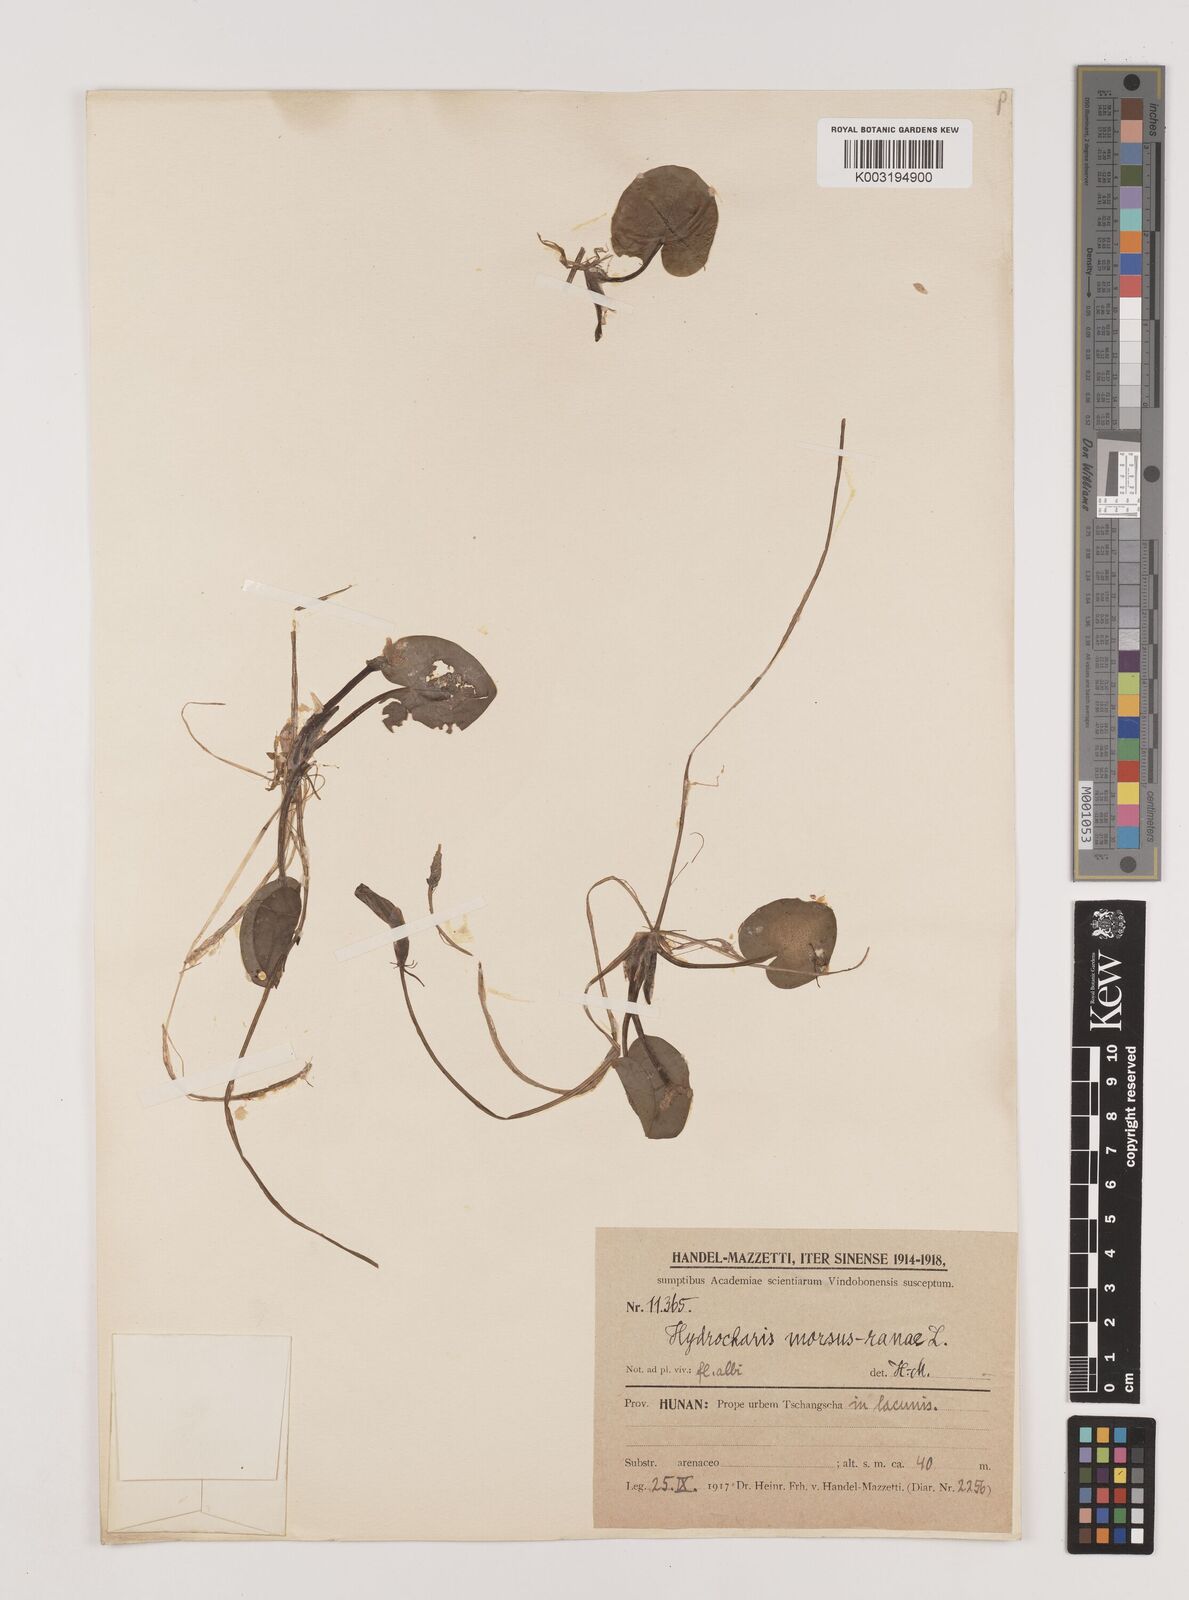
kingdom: Plantae
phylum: Tracheophyta
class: Liliopsida
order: Alismatales
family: Hydrocharitaceae
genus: Hydrocharis
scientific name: Hydrocharis dubia
